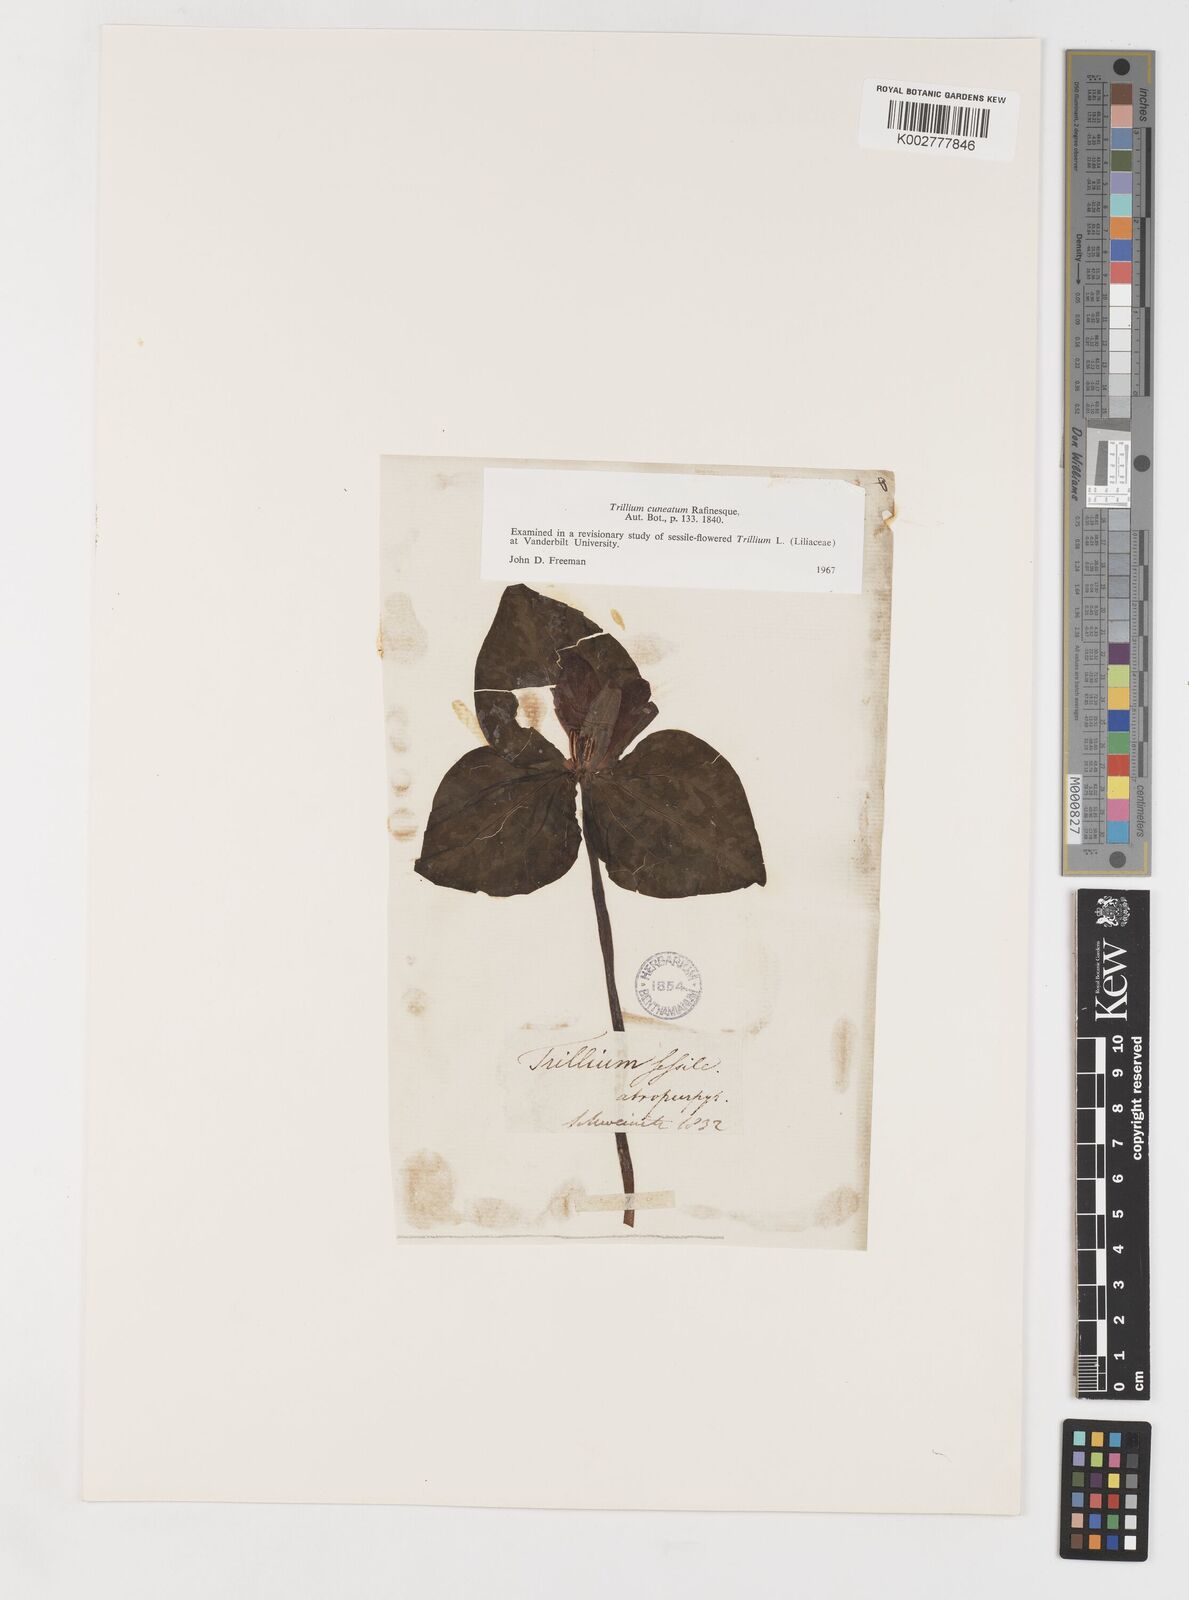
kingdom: Plantae
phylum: Tracheophyta
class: Liliopsida
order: Liliales
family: Melanthiaceae
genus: Trillium
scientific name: Trillium cuneatum
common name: Cuneate trillium
